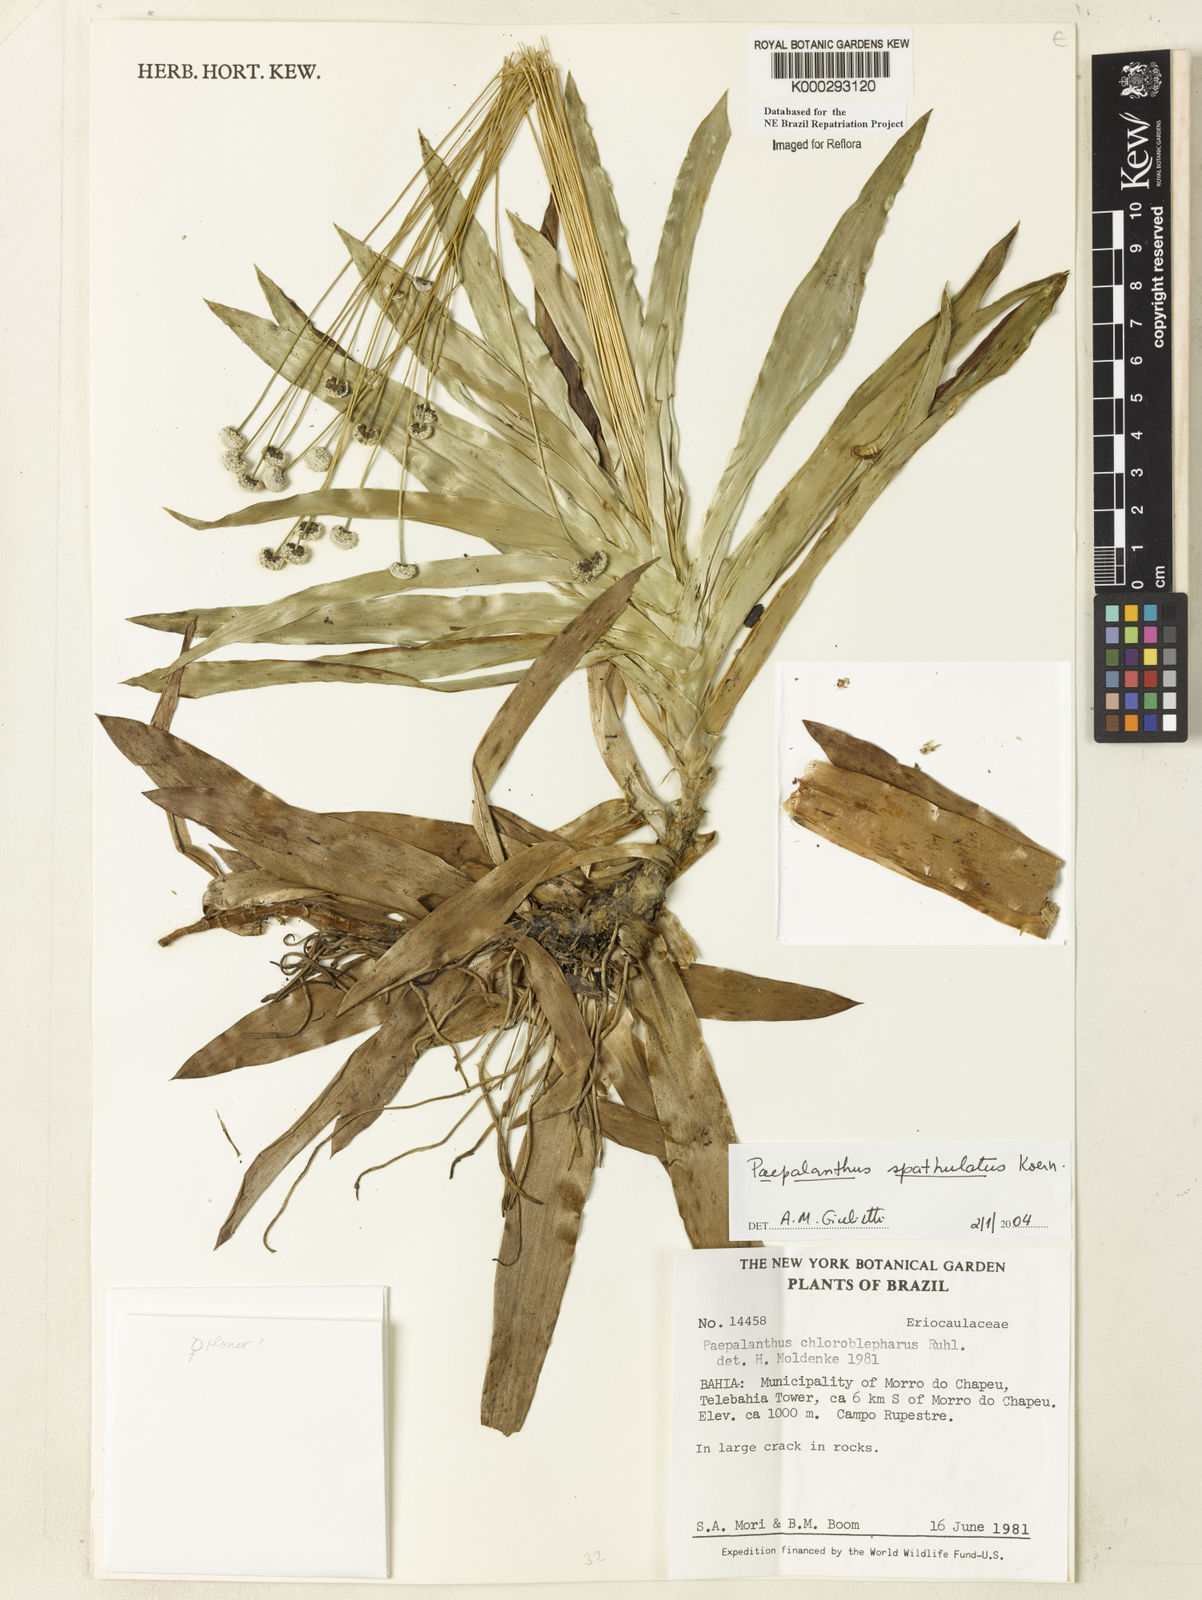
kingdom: Plantae
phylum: Tracheophyta
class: Liliopsida
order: Poales
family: Eriocaulaceae
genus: Paepalanthus
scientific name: Paepalanthus
